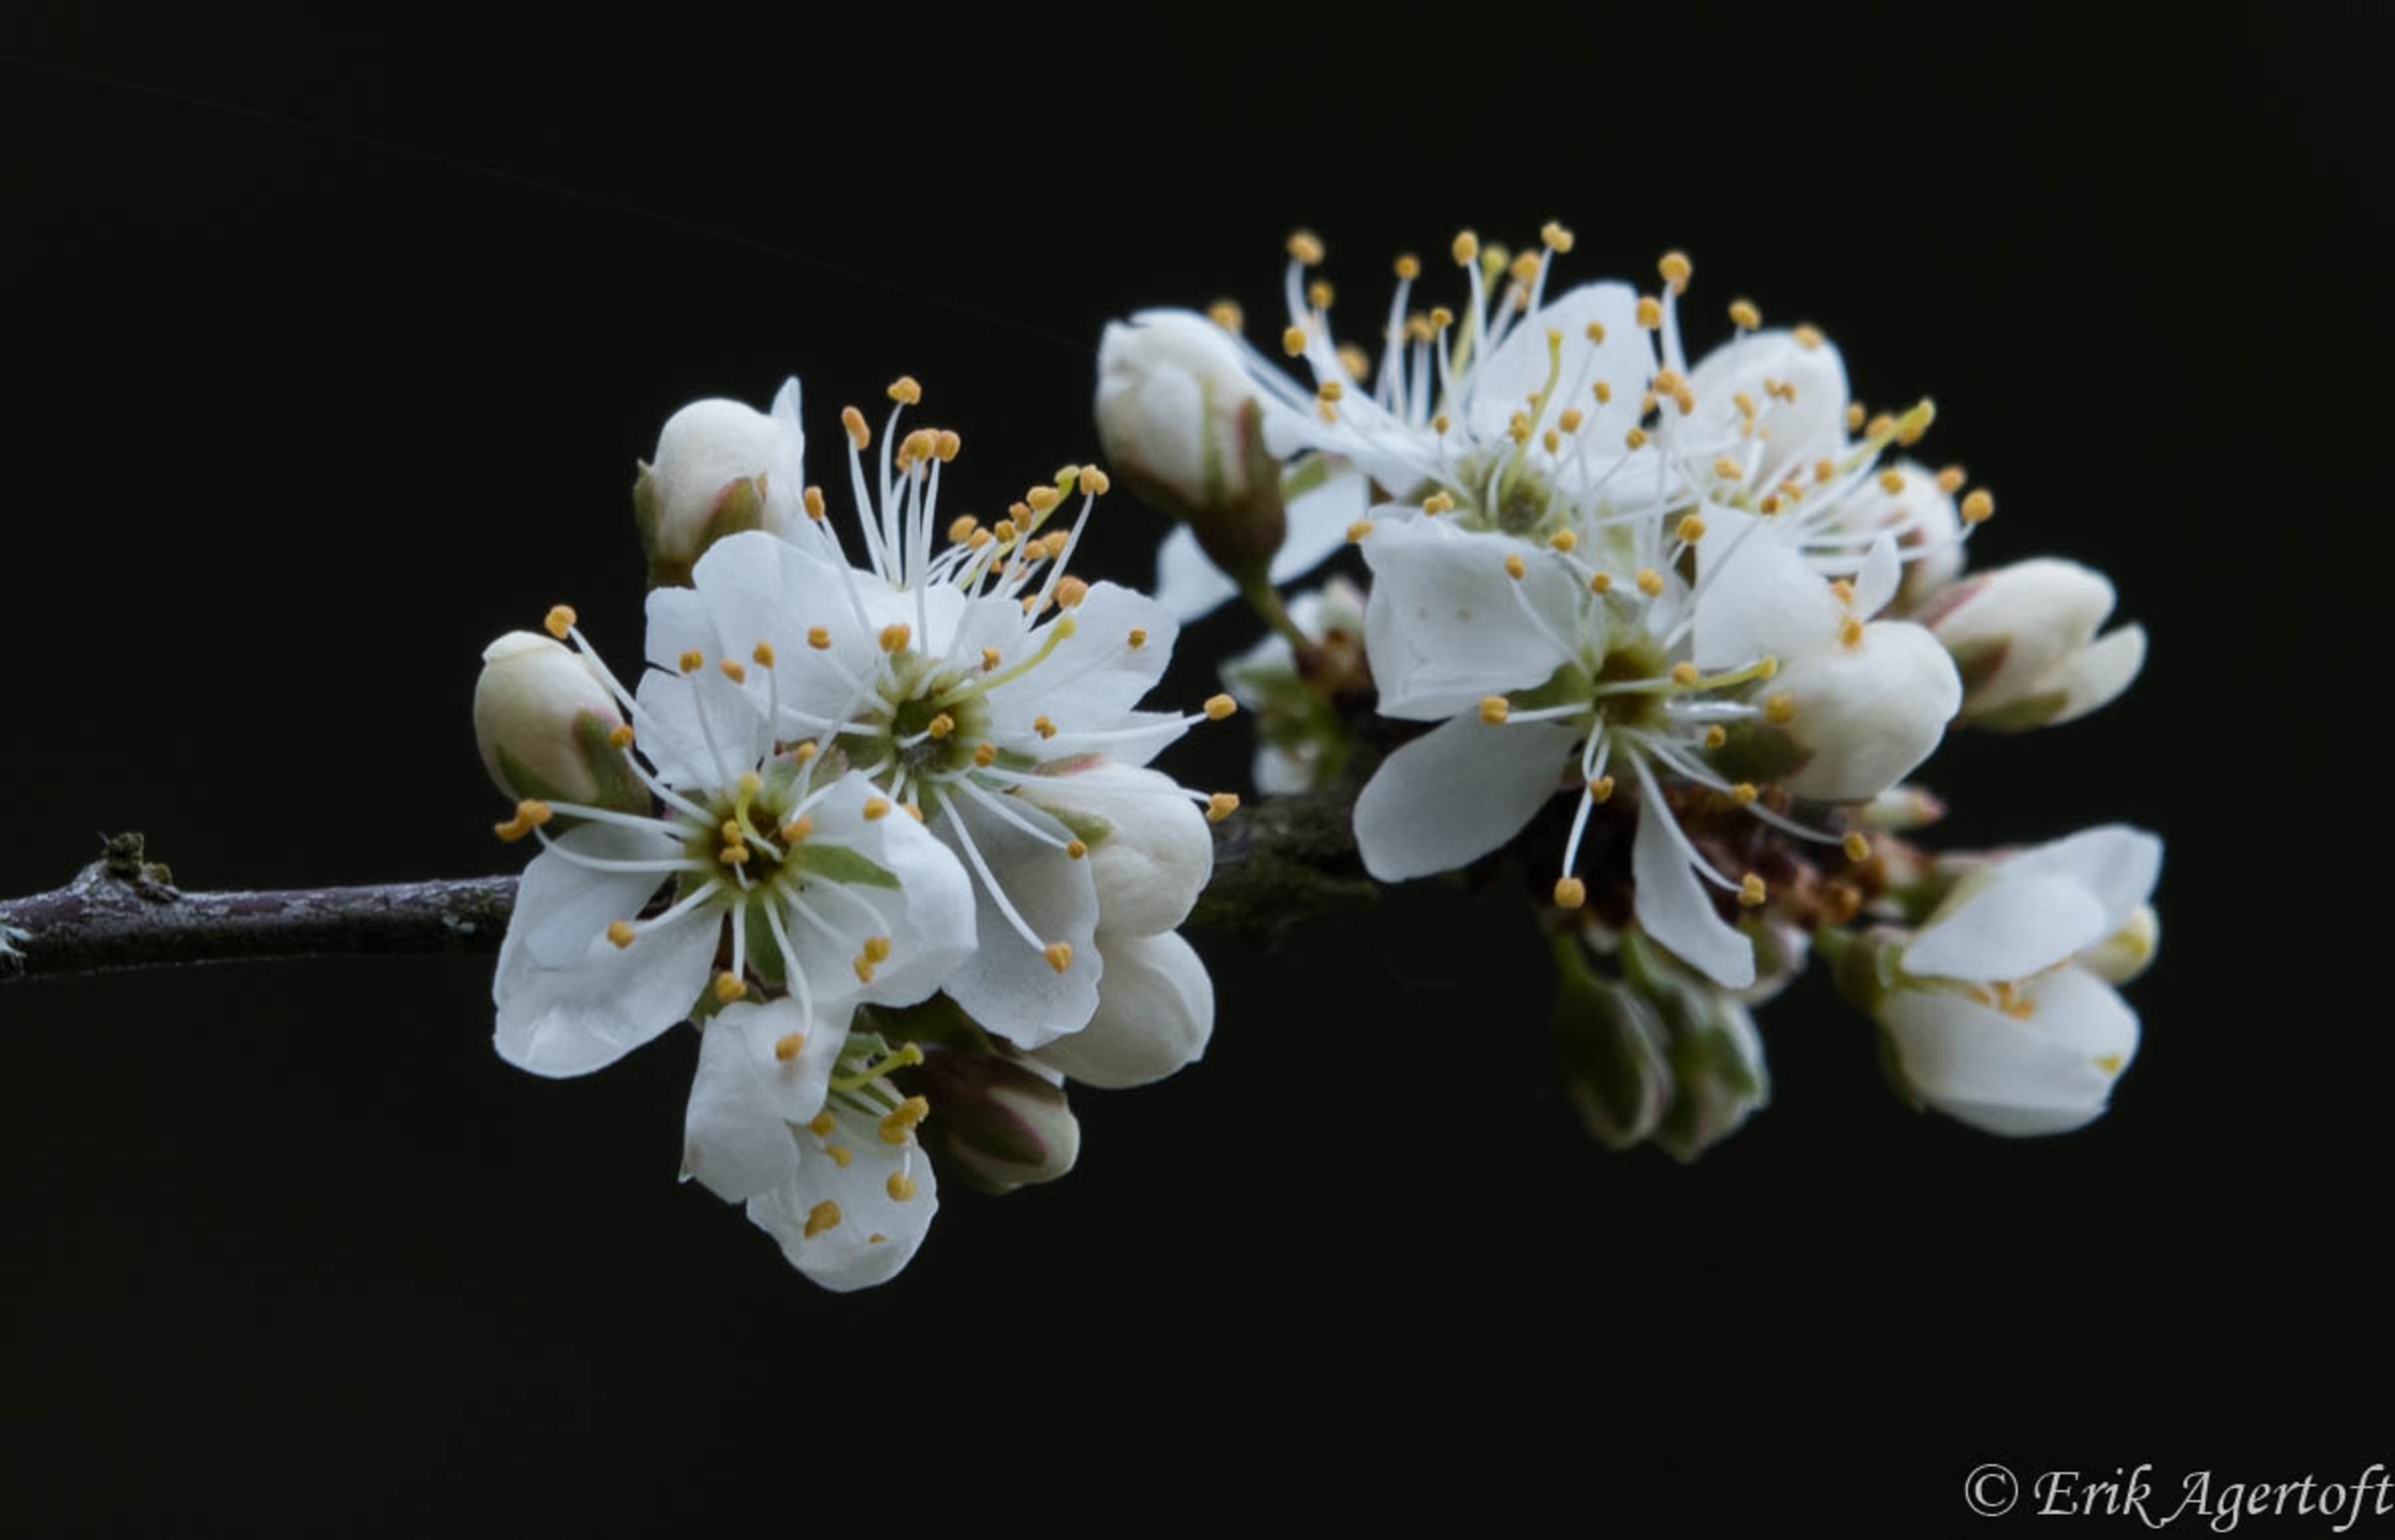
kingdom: Plantae
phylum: Tracheophyta
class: Magnoliopsida
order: Rosales
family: Rosaceae
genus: Prunus
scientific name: Prunus spinosa
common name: Slåen
